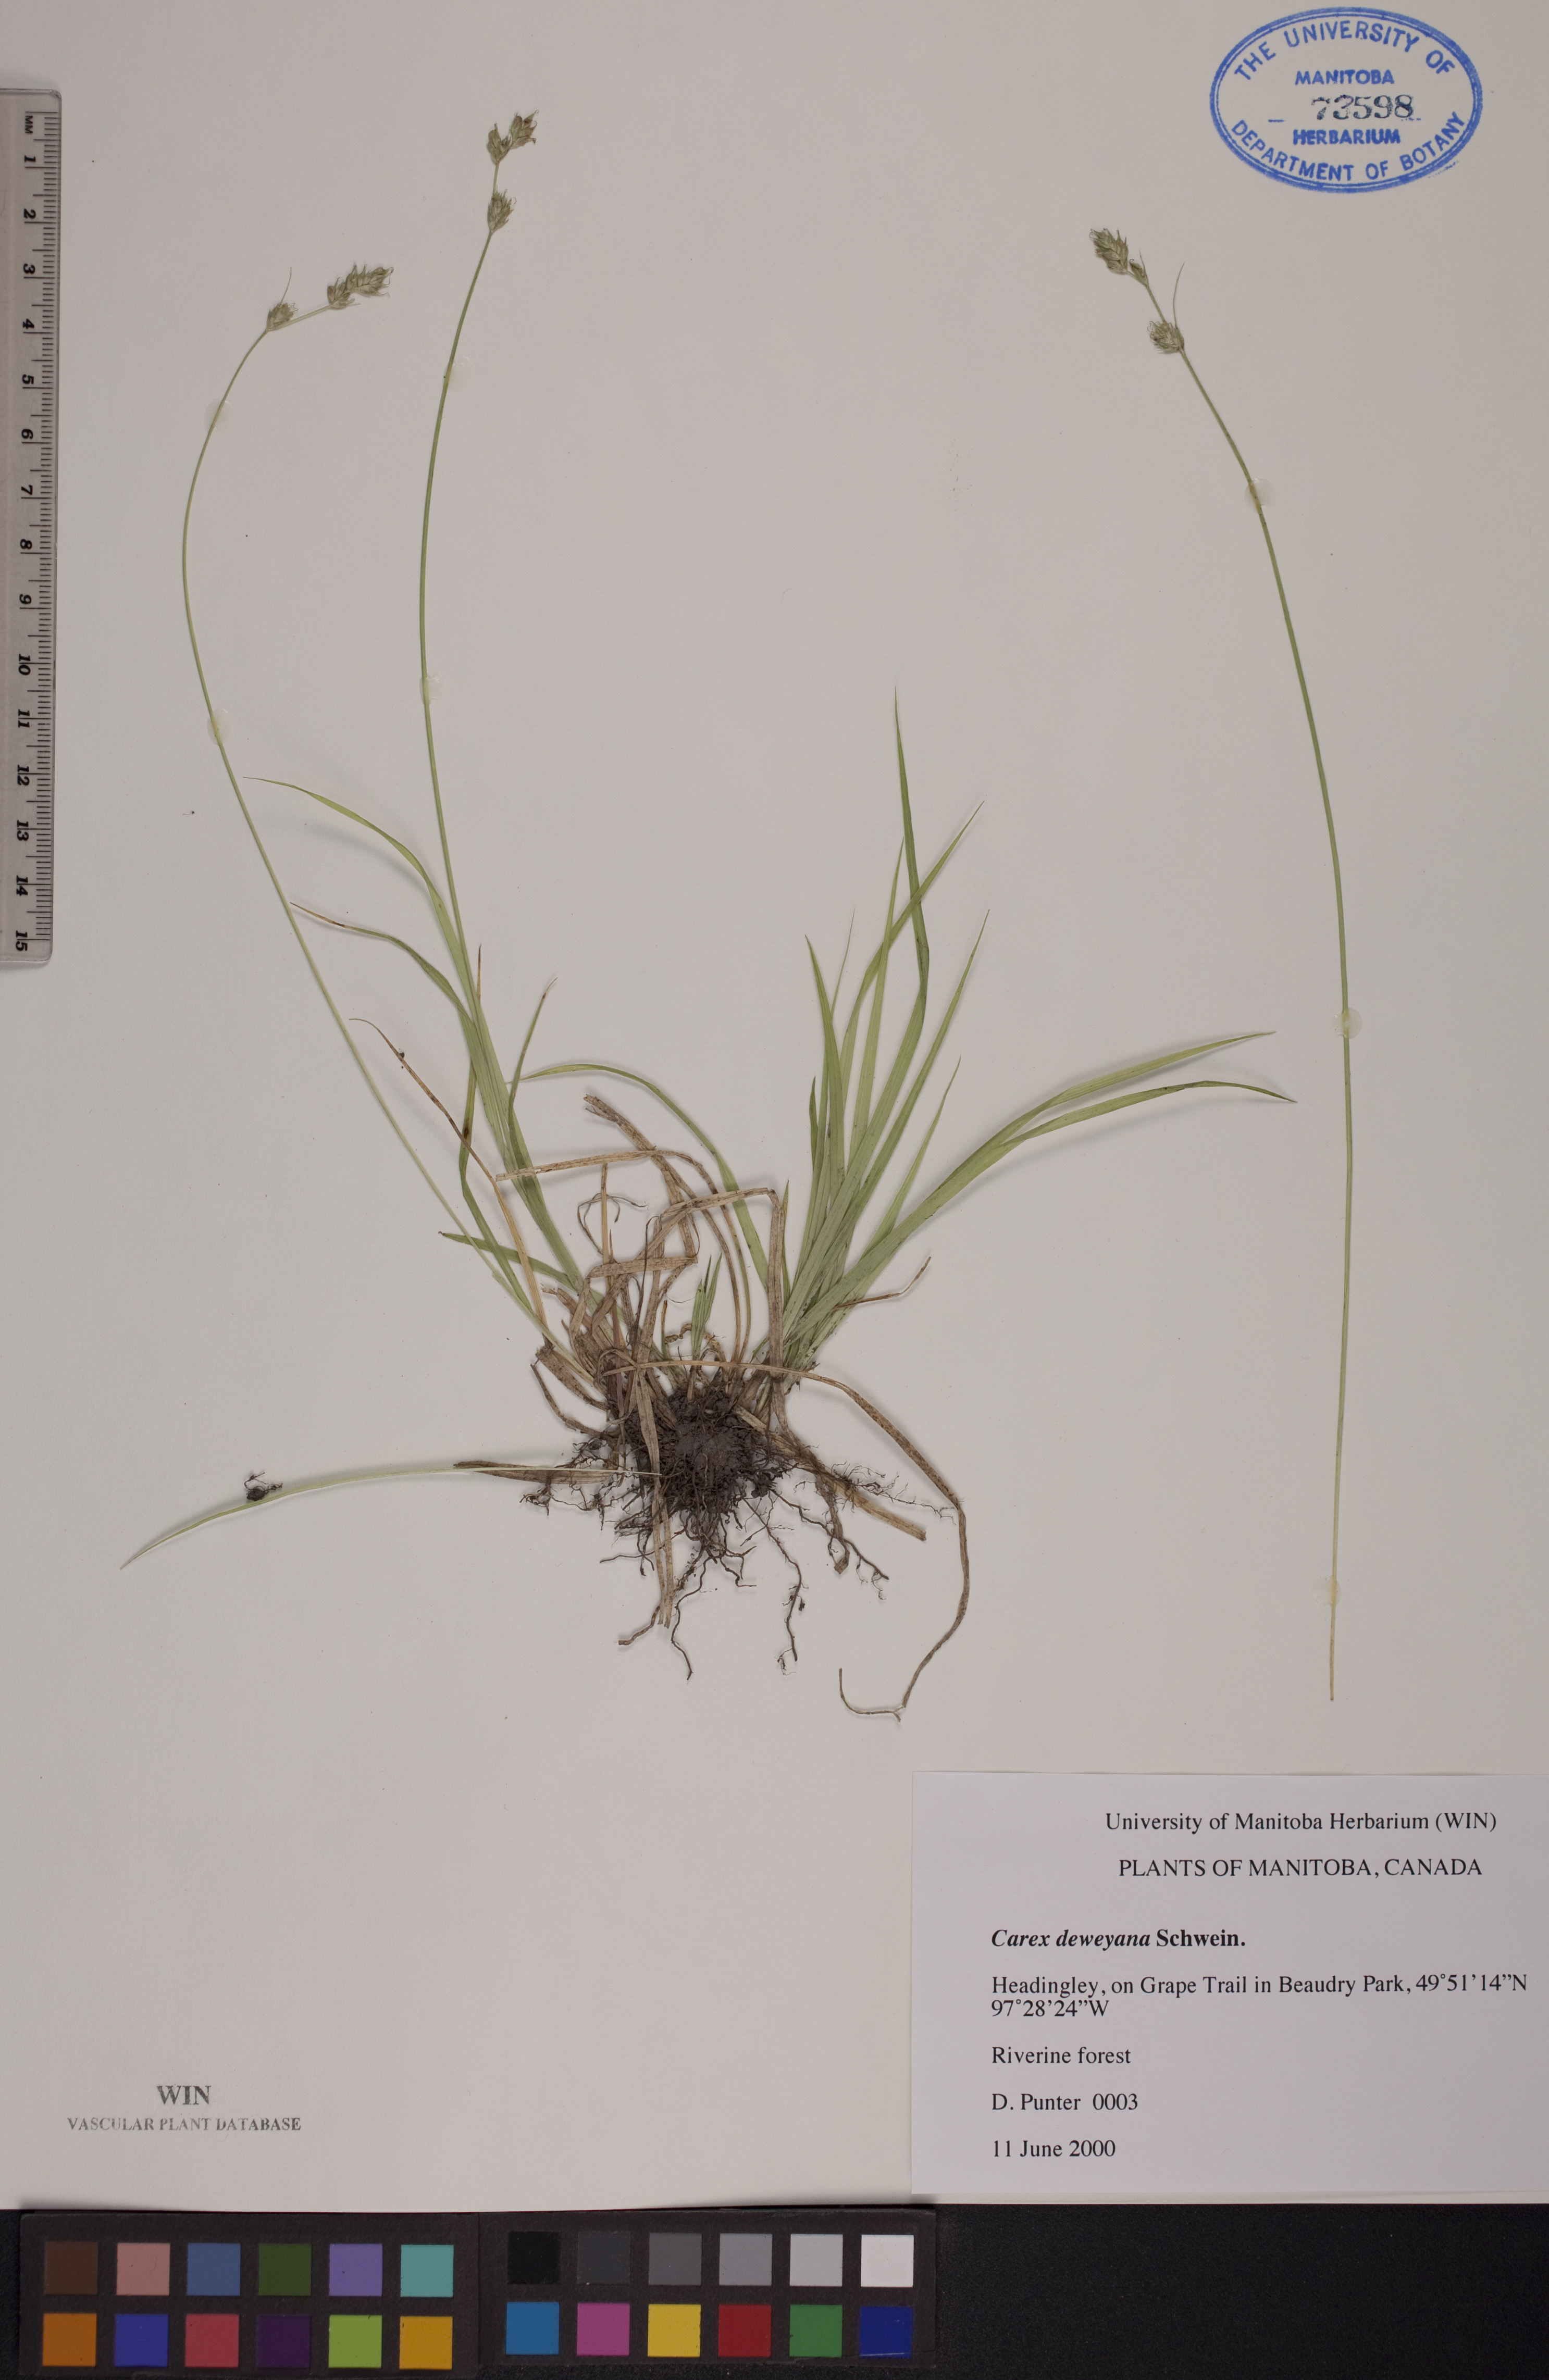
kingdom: Plantae
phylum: Tracheophyta
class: Liliopsida
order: Poales
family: Cyperaceae
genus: Carex
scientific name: Carex deweyana
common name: Dewey's sedge
